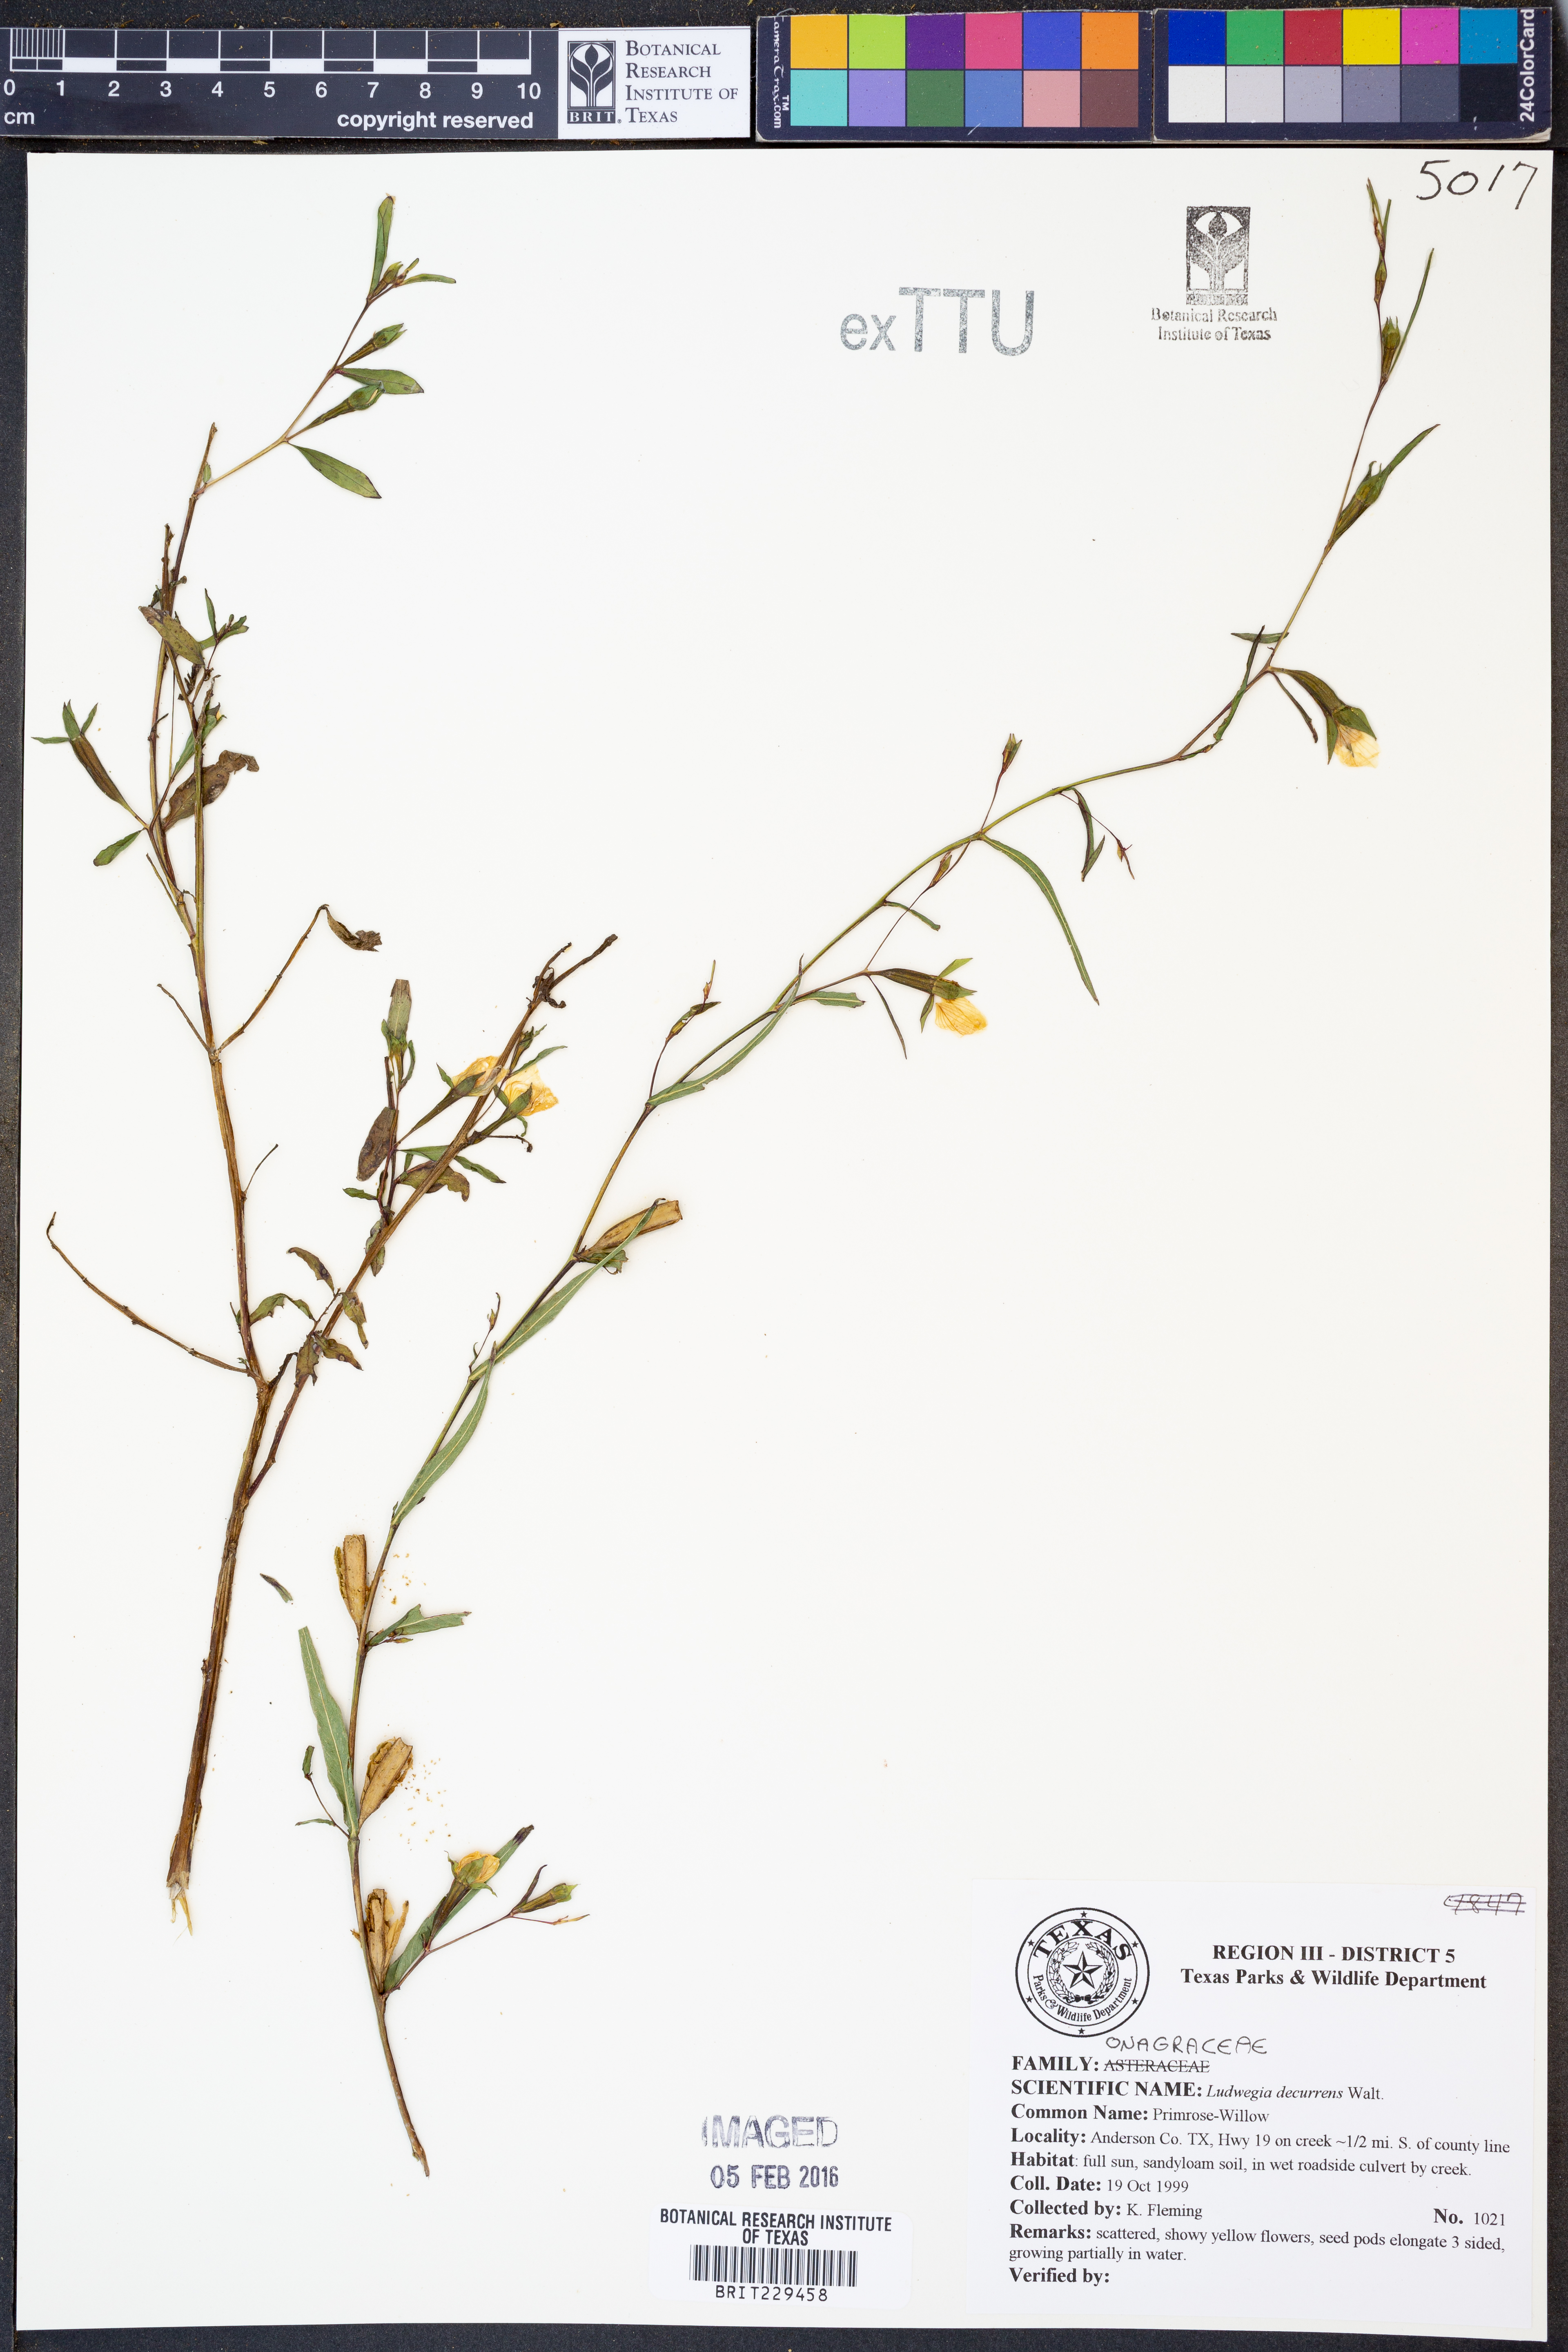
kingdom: Plantae
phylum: Tracheophyta
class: Magnoliopsida
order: Myrtales
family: Onagraceae
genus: Ludwigia
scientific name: Ludwigia decurrens
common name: Winged water-primrose
